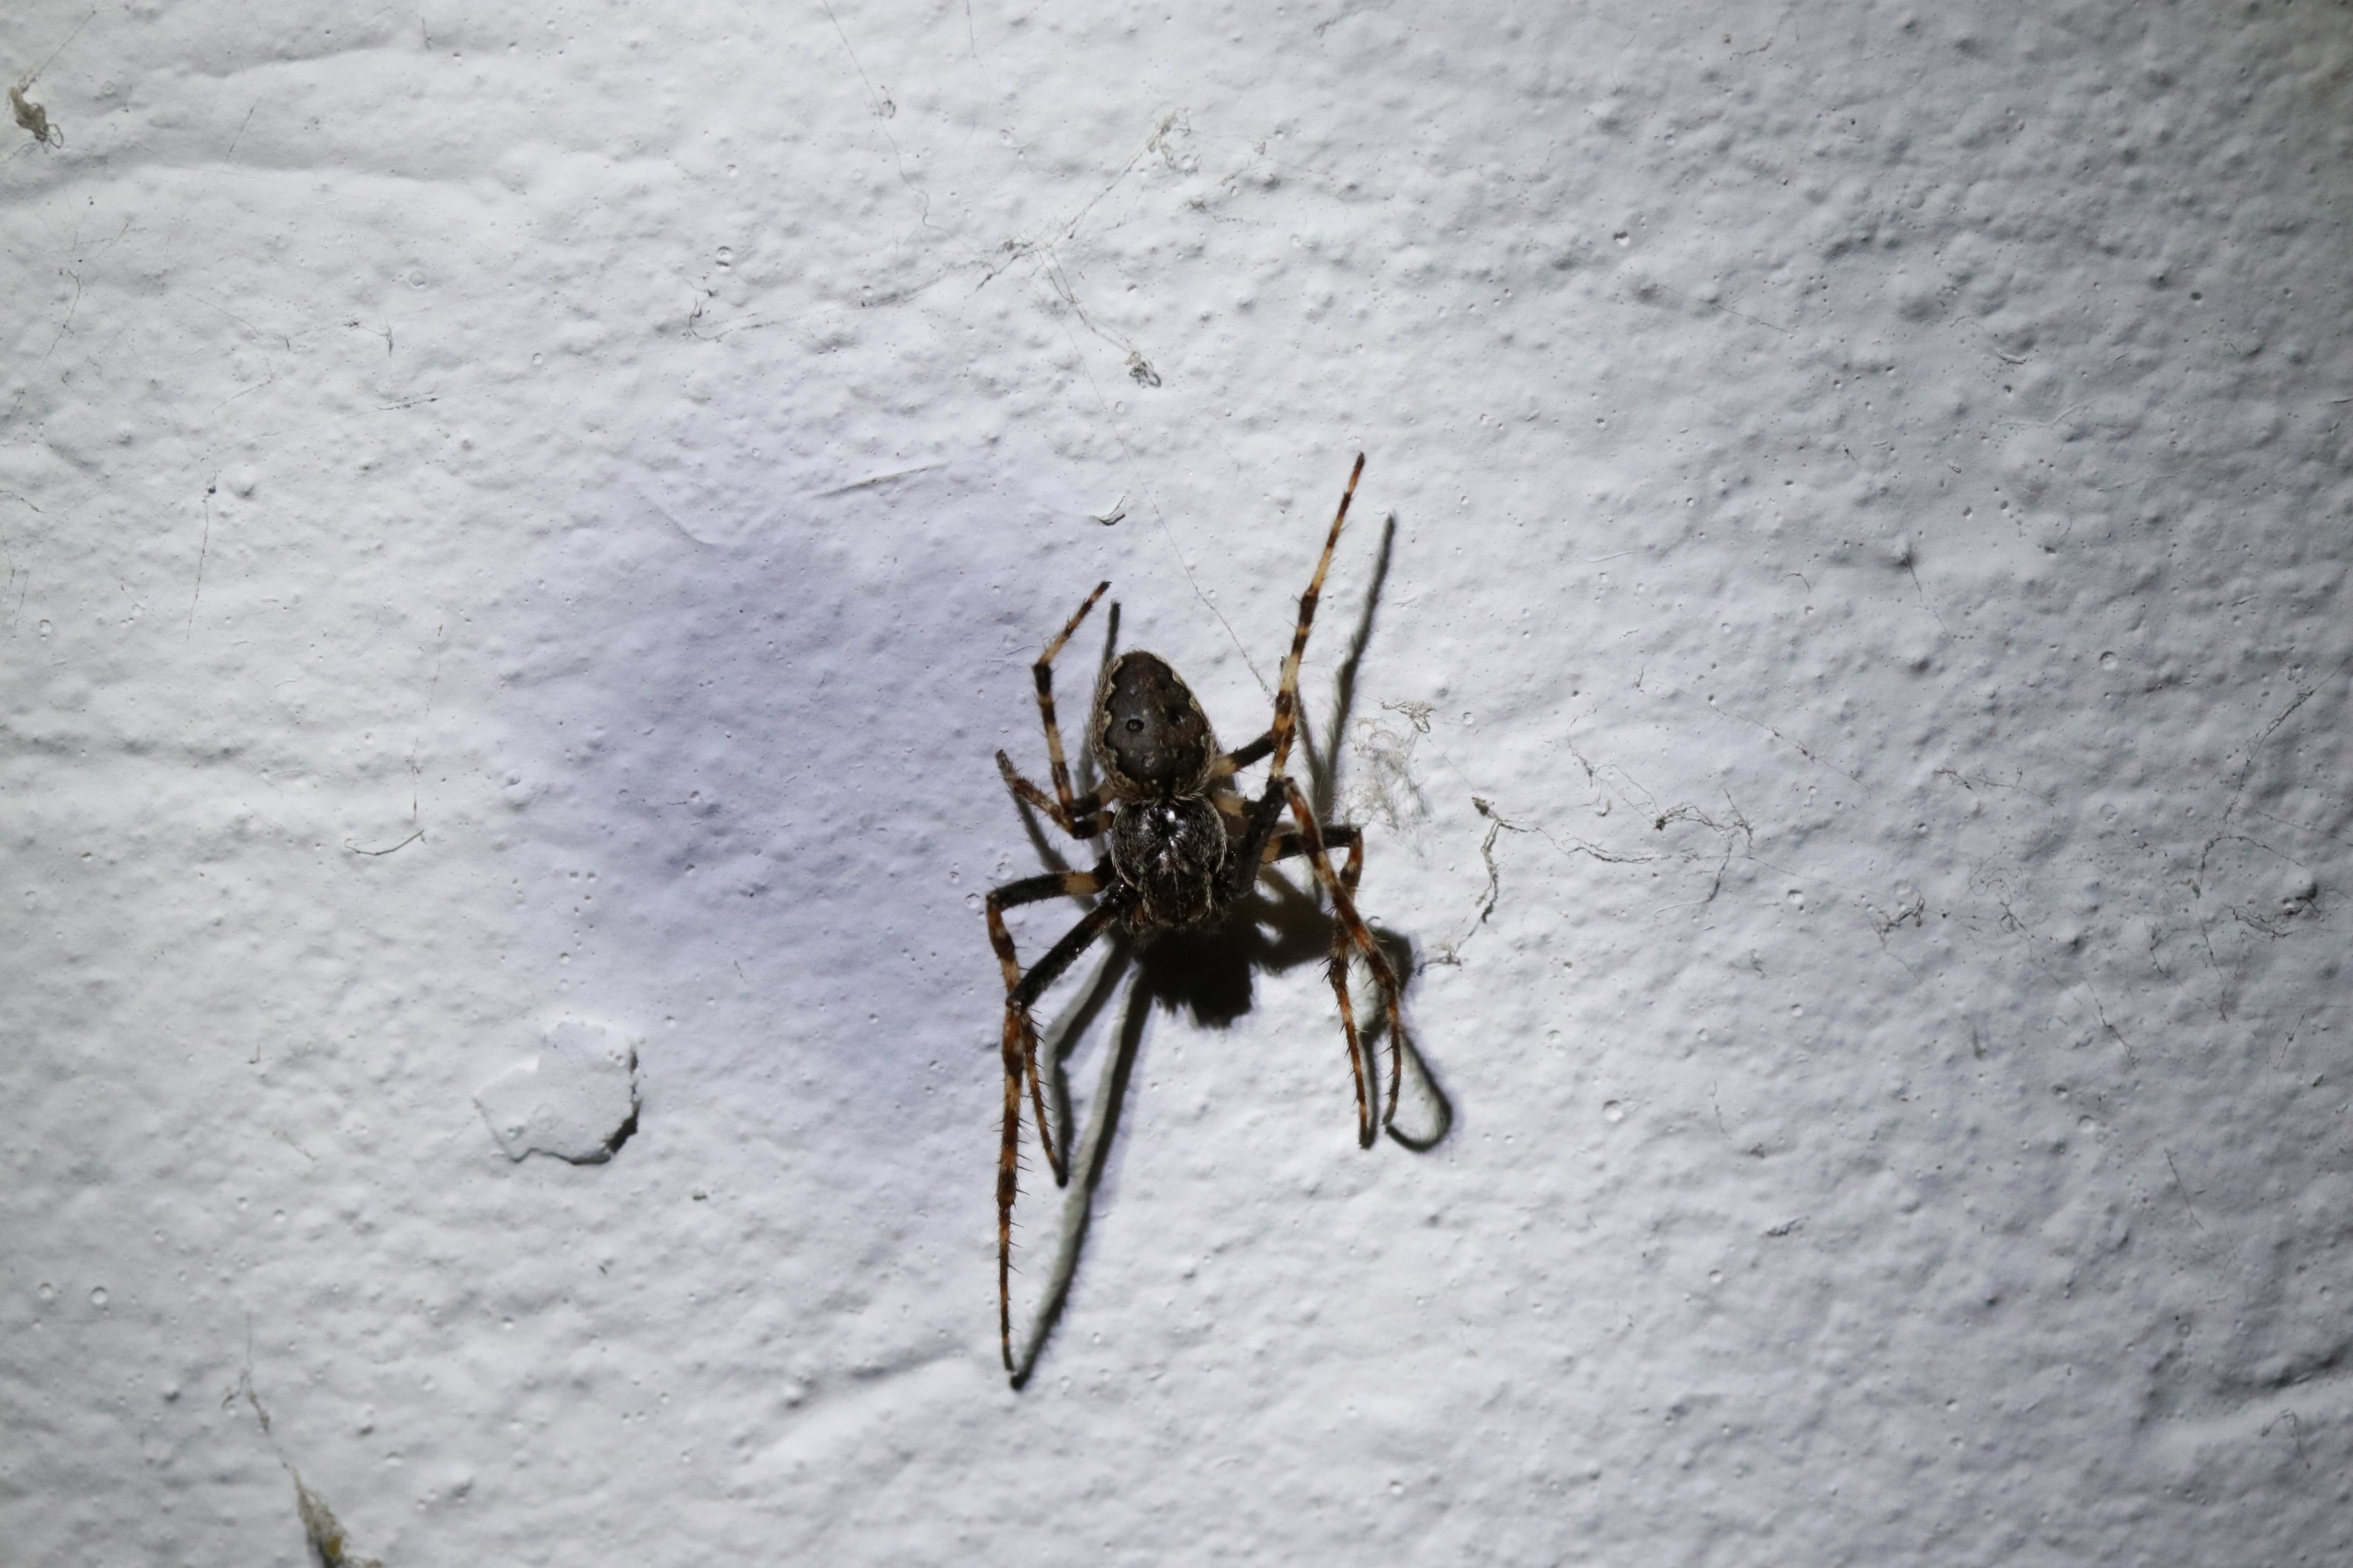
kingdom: Animalia
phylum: Arthropoda
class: Arachnida
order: Araneae
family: Araneidae
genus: Nuctenea
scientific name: Nuctenea umbratica
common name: Flad hjulspinder
